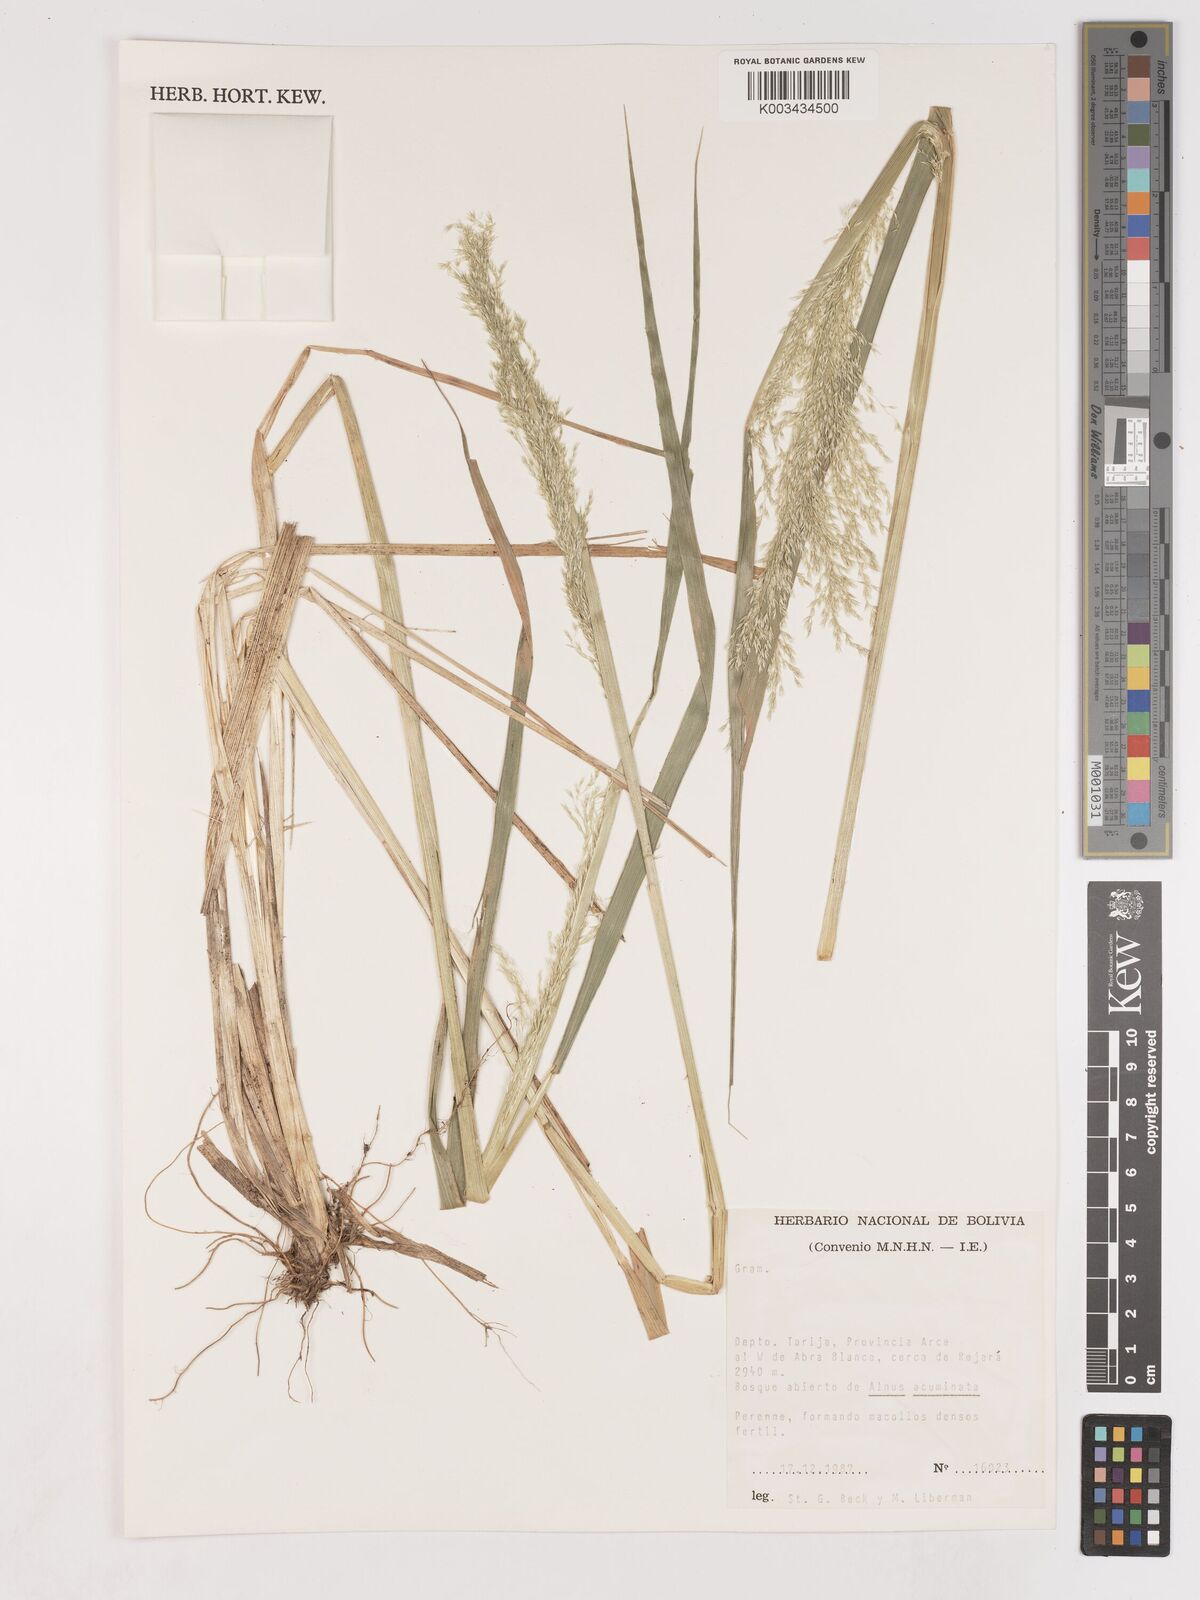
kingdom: Plantae
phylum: Tracheophyta
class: Liliopsida
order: Poales
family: Poaceae
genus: Cinnagrostis
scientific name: Cinnagrostis calderillensis
